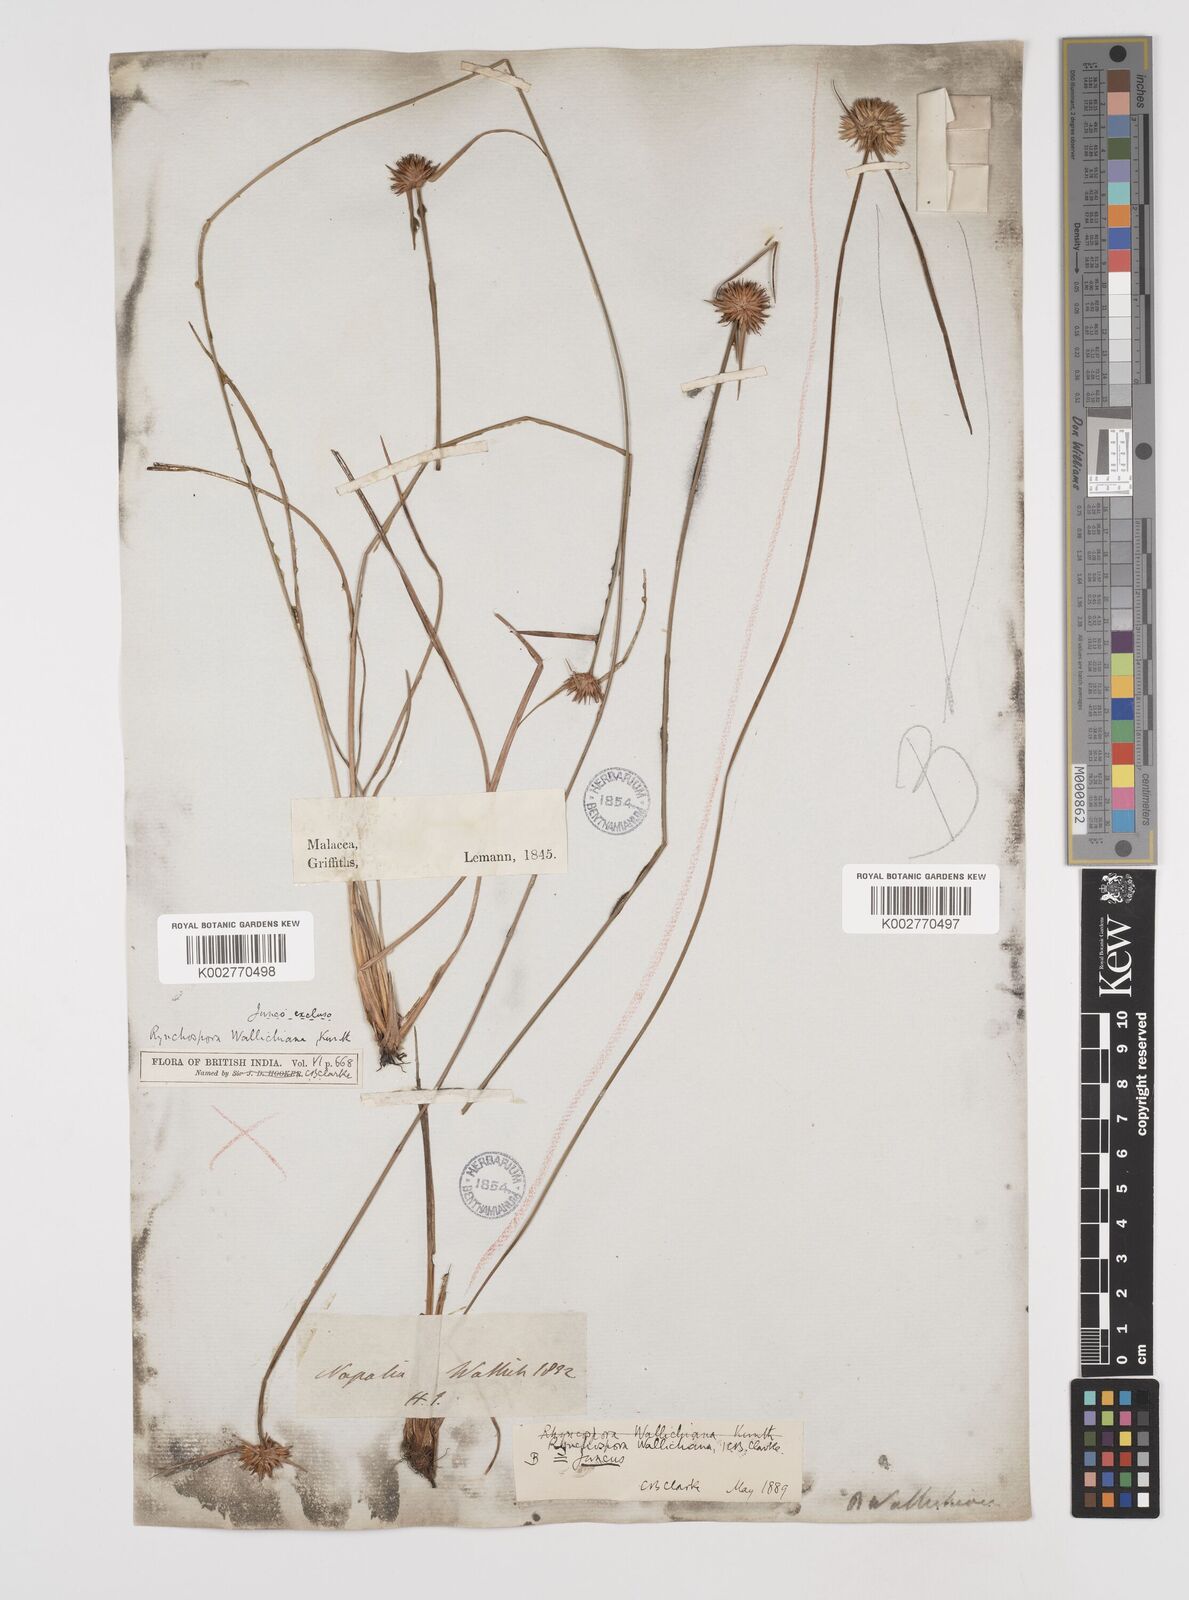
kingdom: Plantae
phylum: Tracheophyta
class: Liliopsida
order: Poales
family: Cyperaceae
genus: Rhynchospora
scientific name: Rhynchospora rubra
